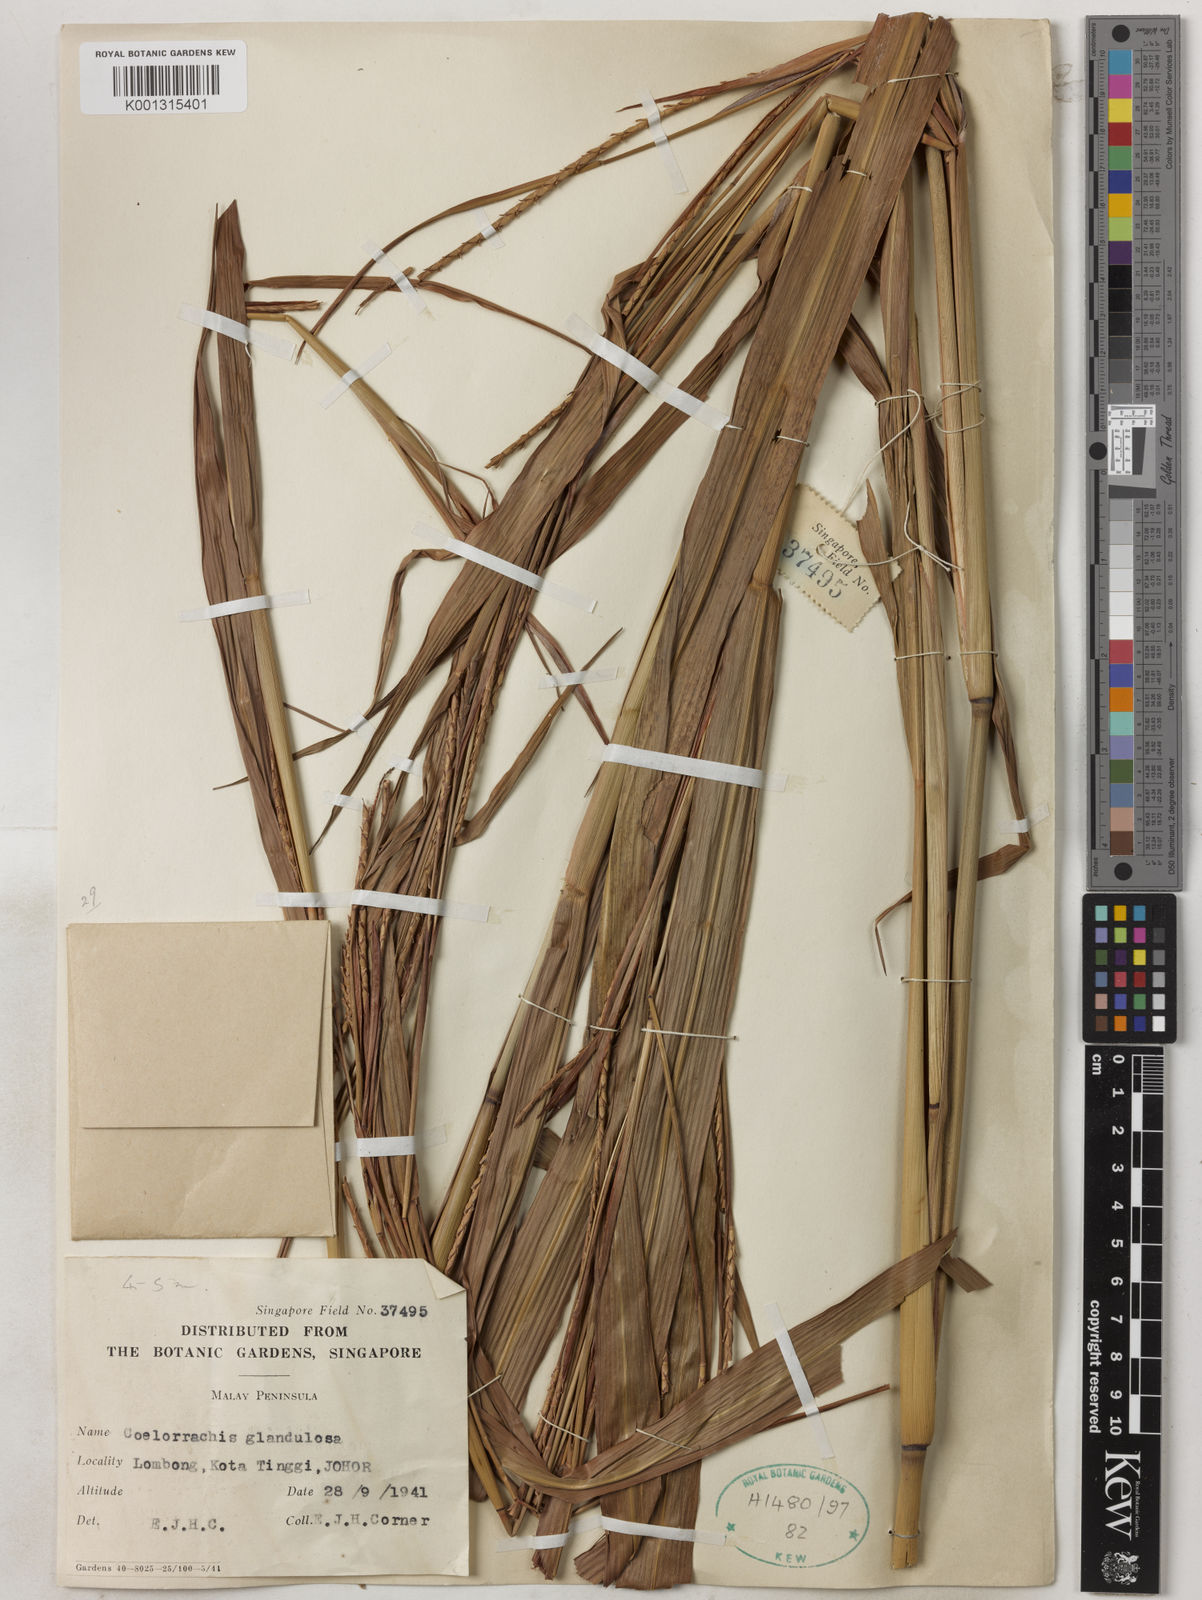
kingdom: Plantae
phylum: Tracheophyta
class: Liliopsida
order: Poales
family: Poaceae
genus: Rottboellia
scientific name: Rottboellia glandulosa
